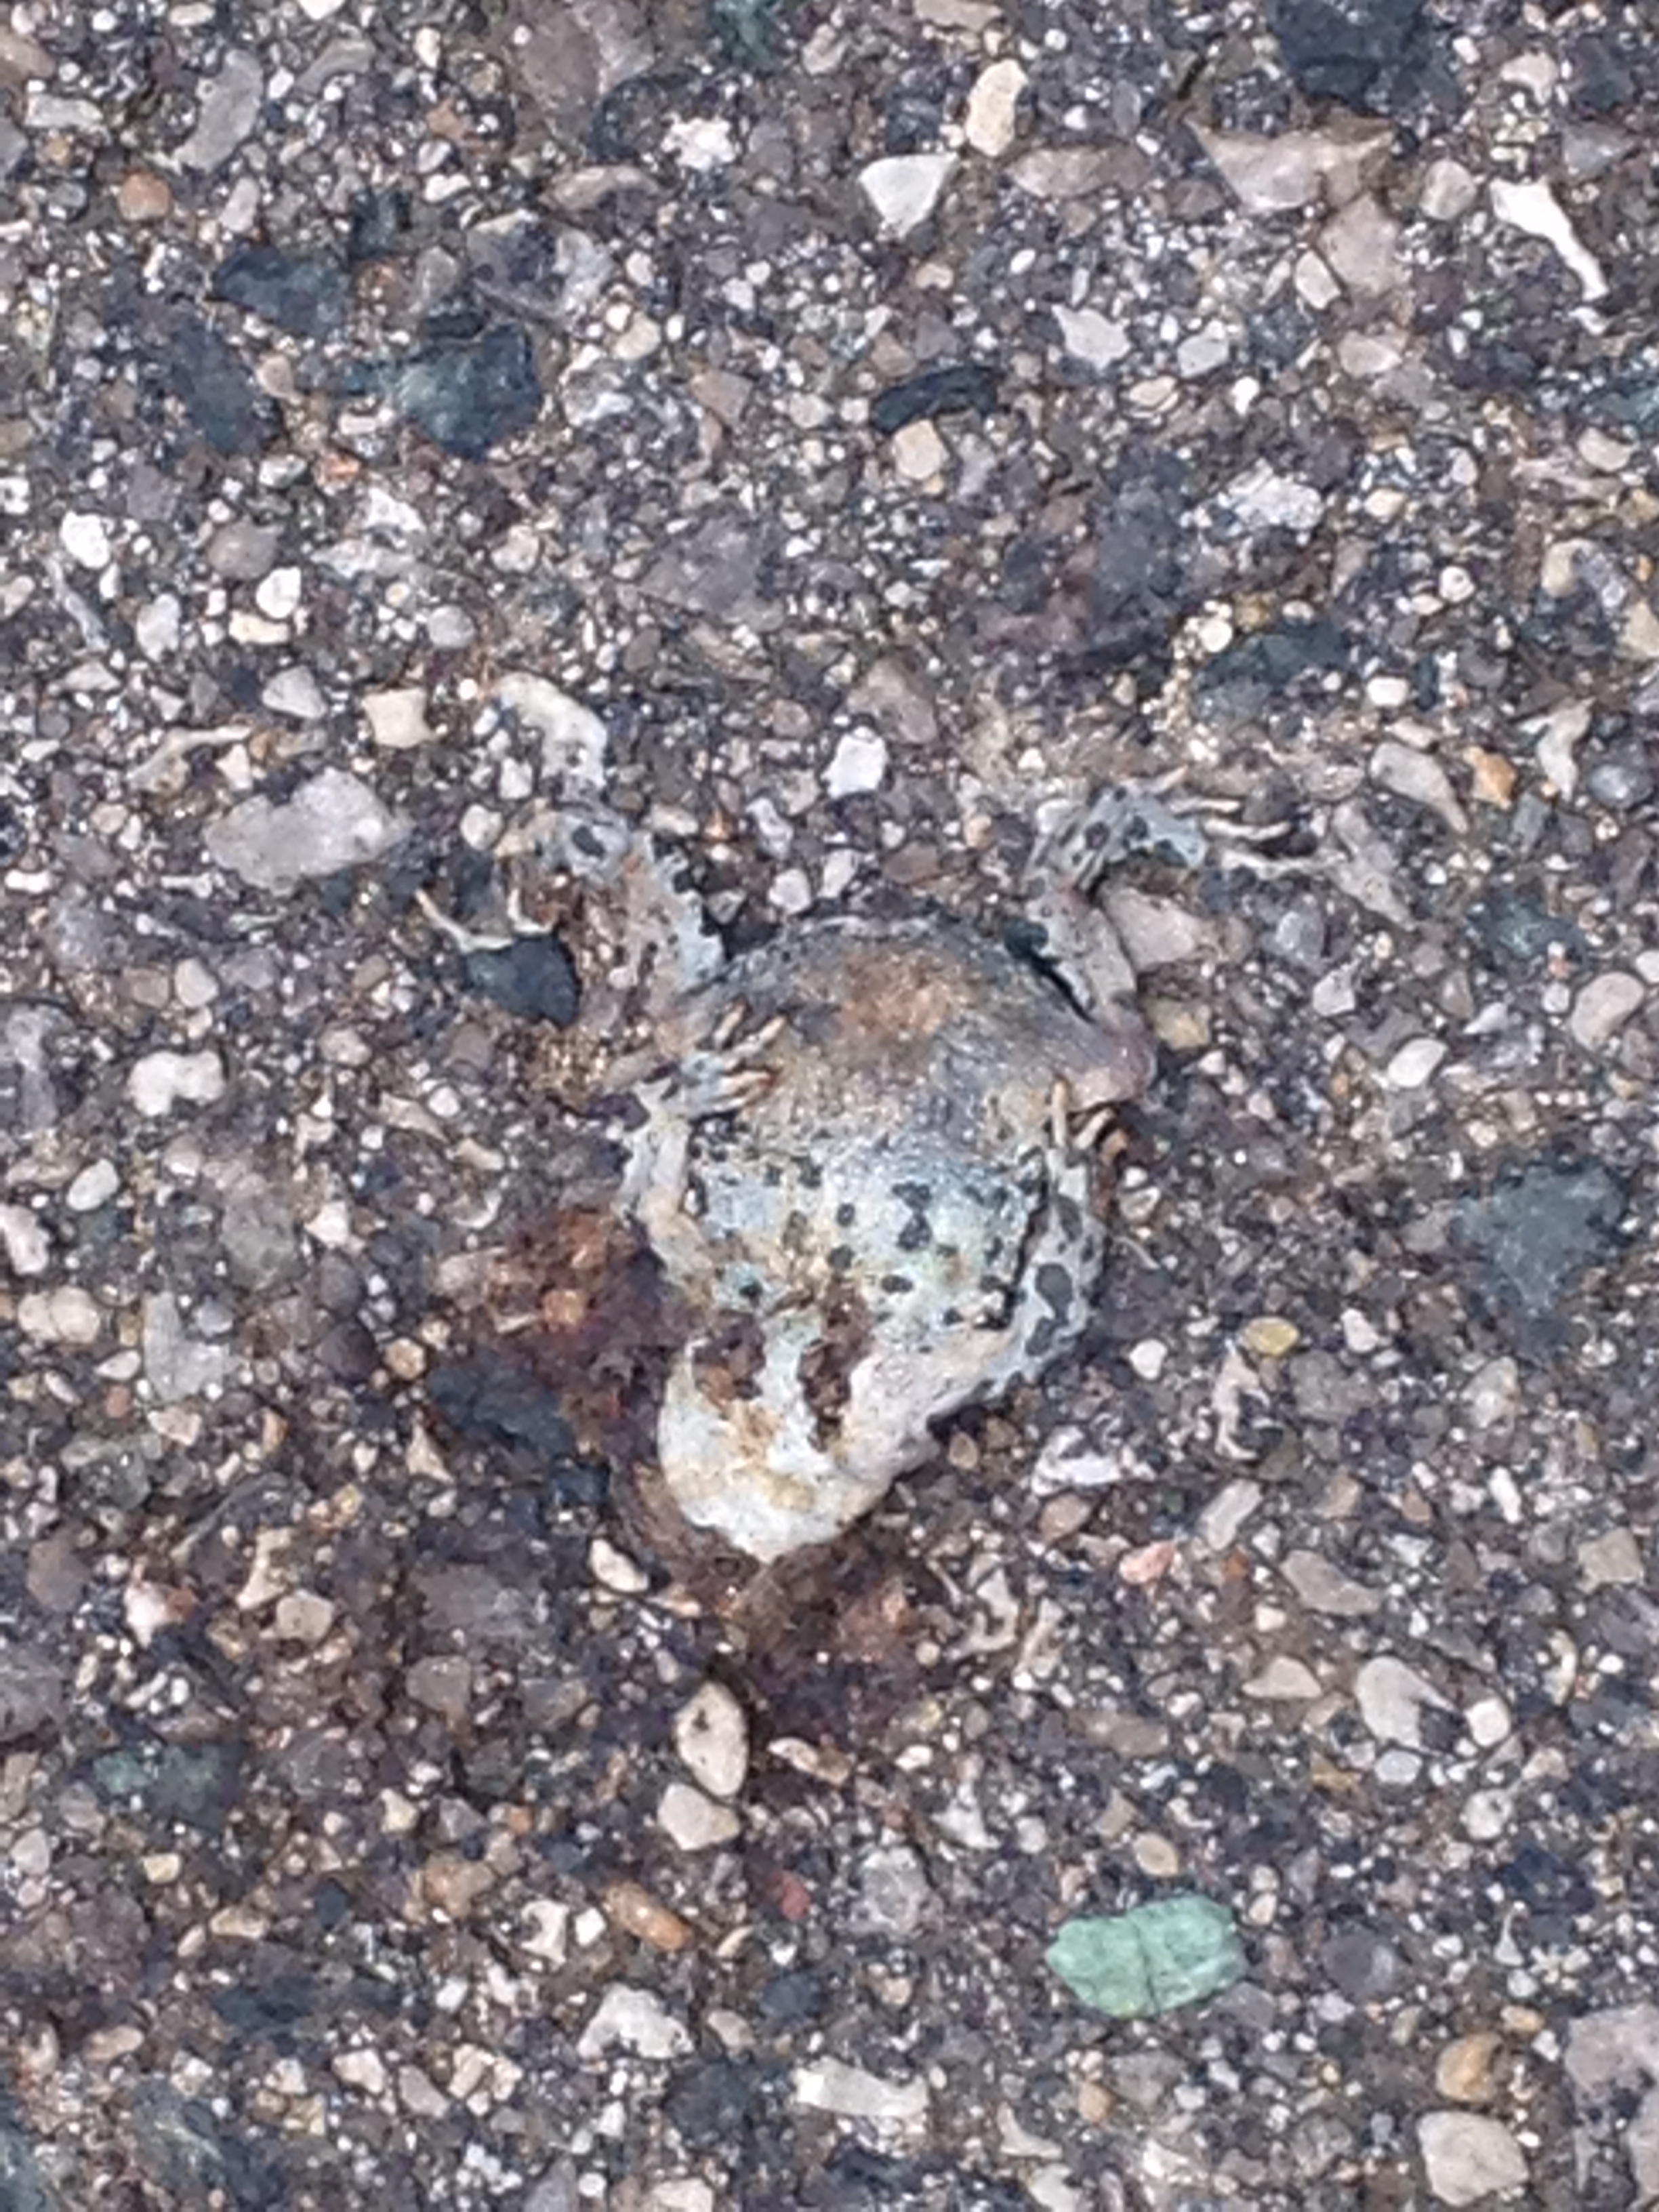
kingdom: Animalia
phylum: Chordata
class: Amphibia
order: Anura
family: Bufonidae
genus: Bufotes
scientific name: Bufotes viridis
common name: European green toad
